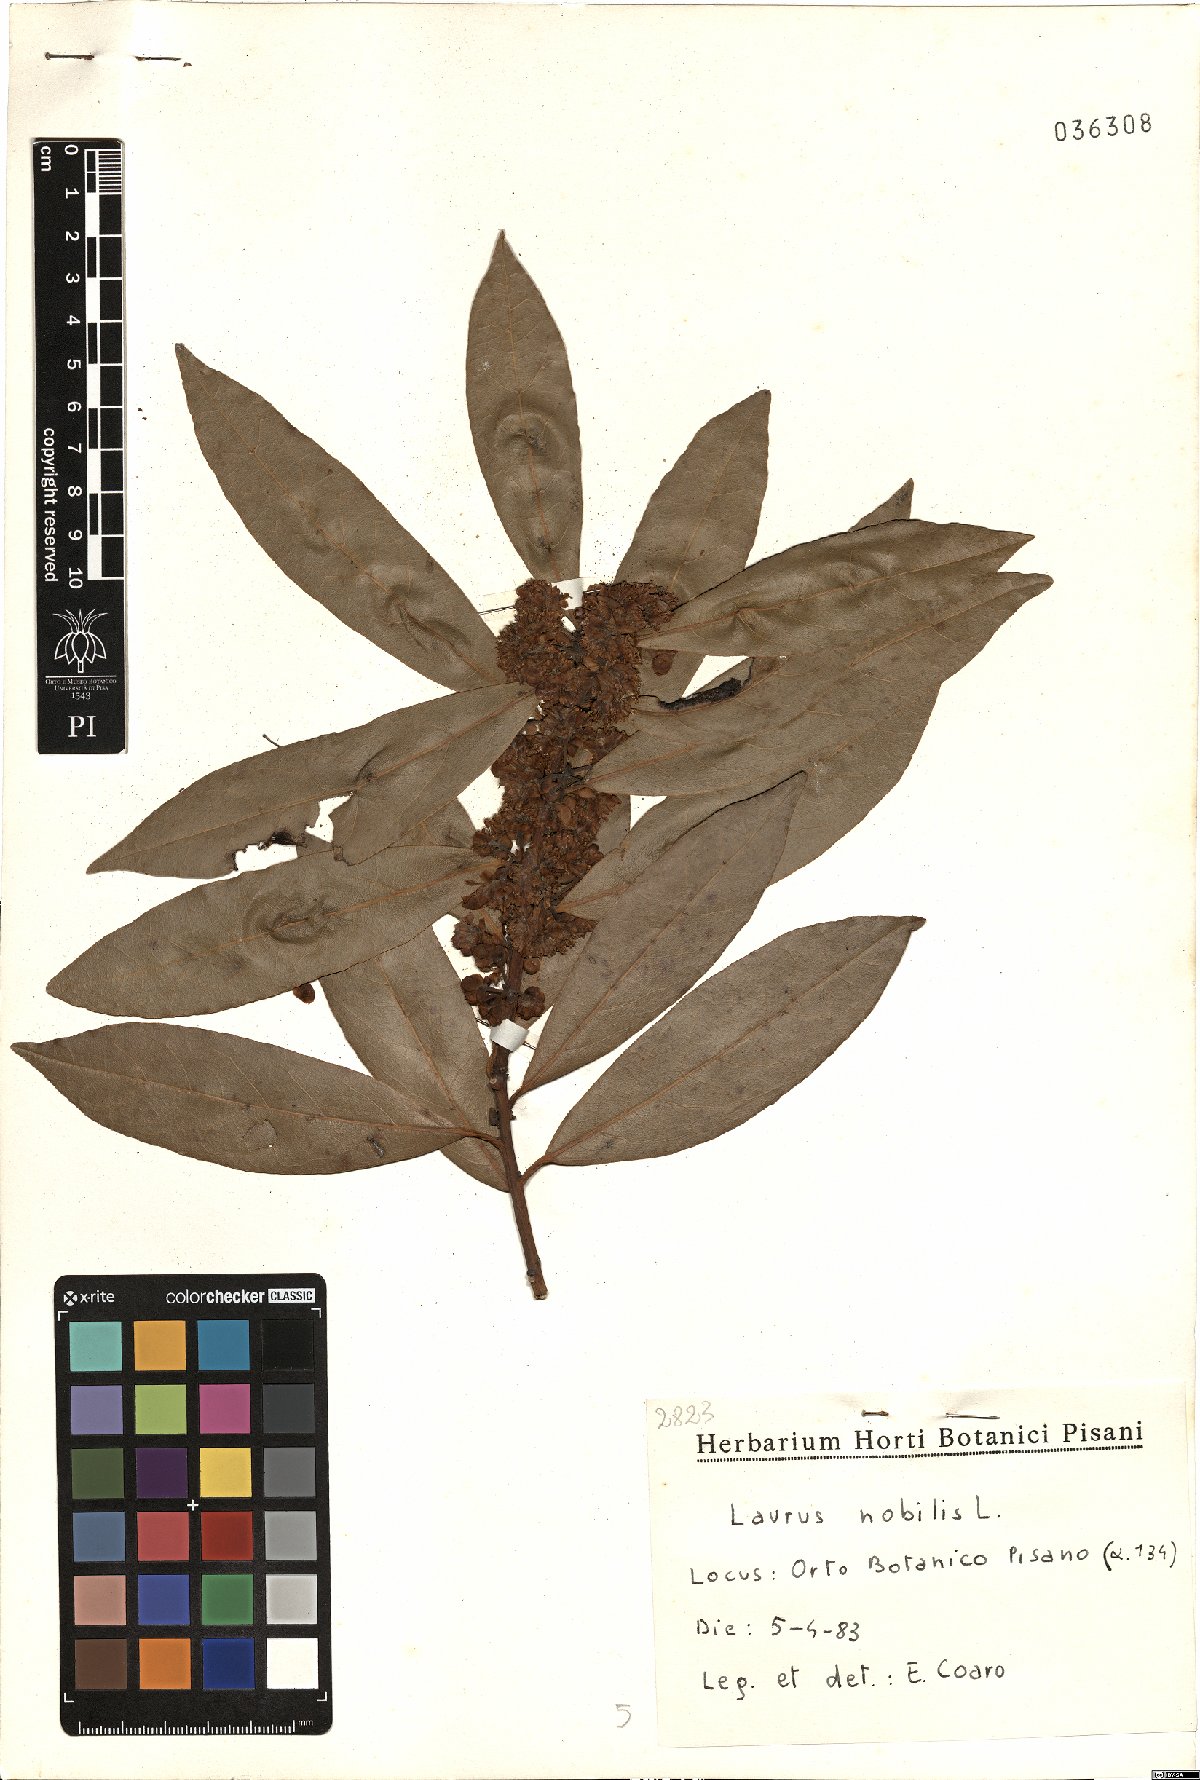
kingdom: Plantae
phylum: Tracheophyta
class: Magnoliopsida
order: Laurales
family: Lauraceae
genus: Laurus
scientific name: Laurus nobilis
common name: Bay
